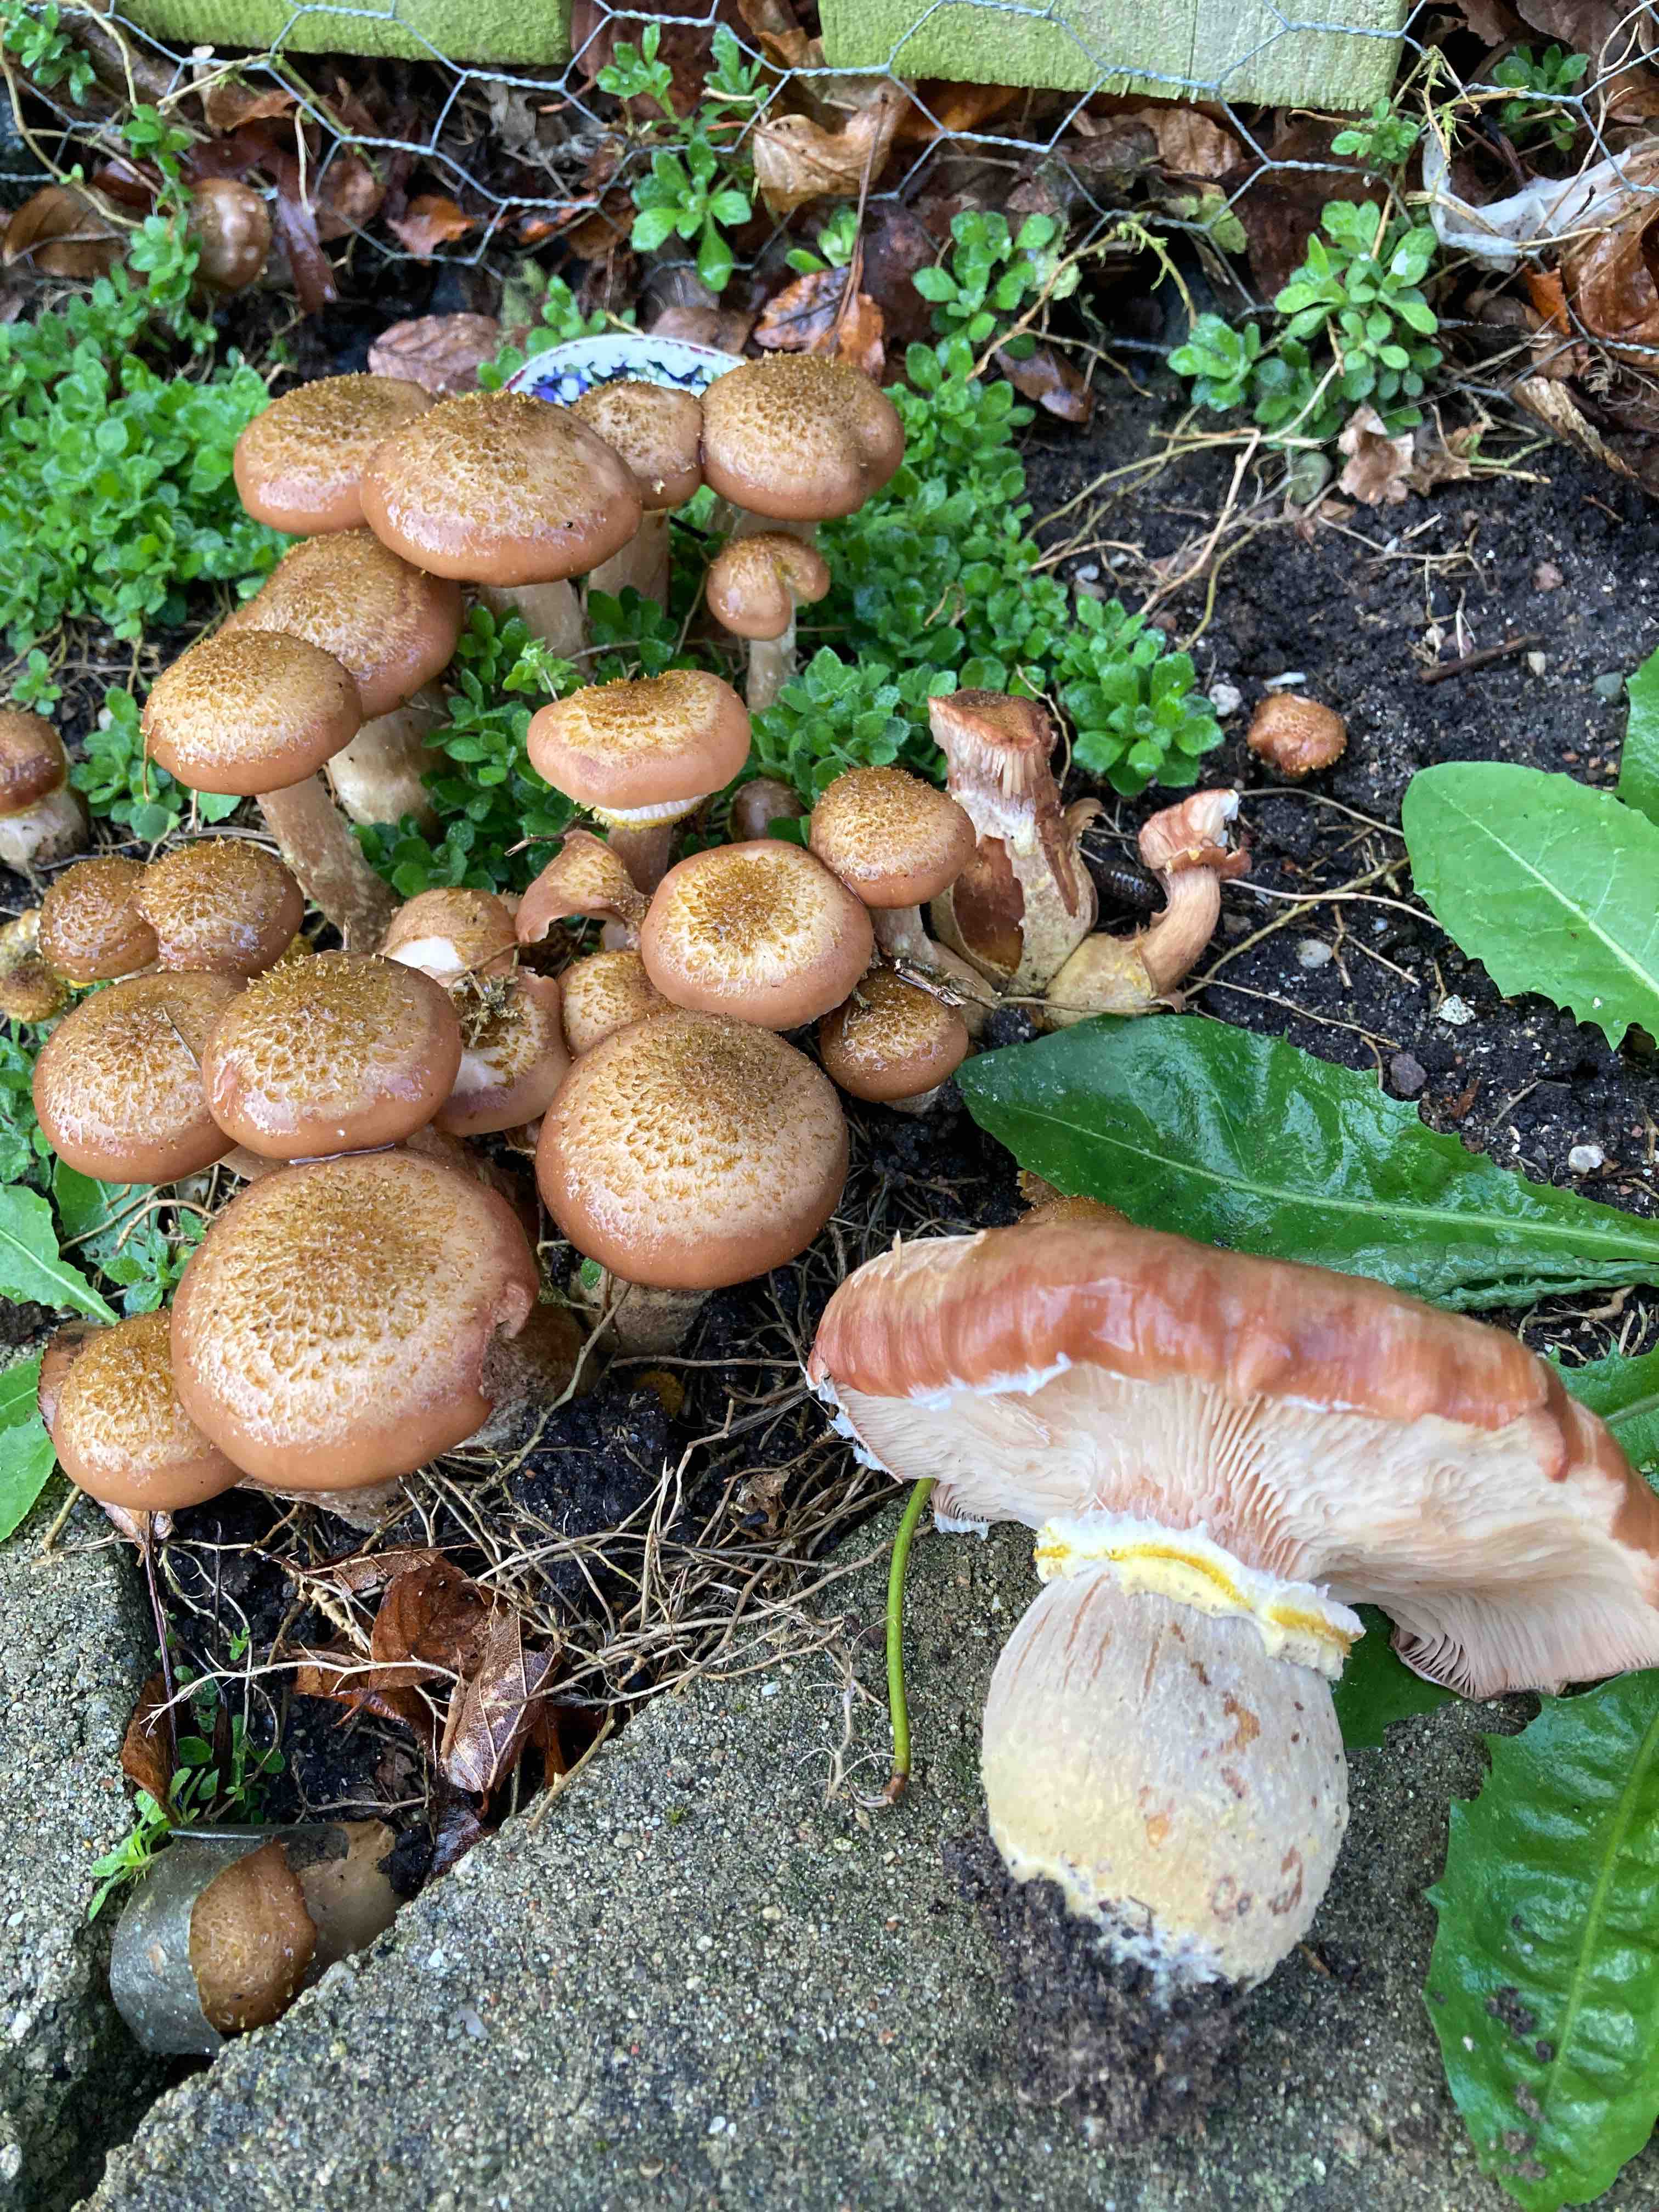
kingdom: Fungi
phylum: Basidiomycota
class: Agaricomycetes
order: Agaricales
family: Physalacriaceae
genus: Armillaria
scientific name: Armillaria lutea
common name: køllestokket honningsvamp
